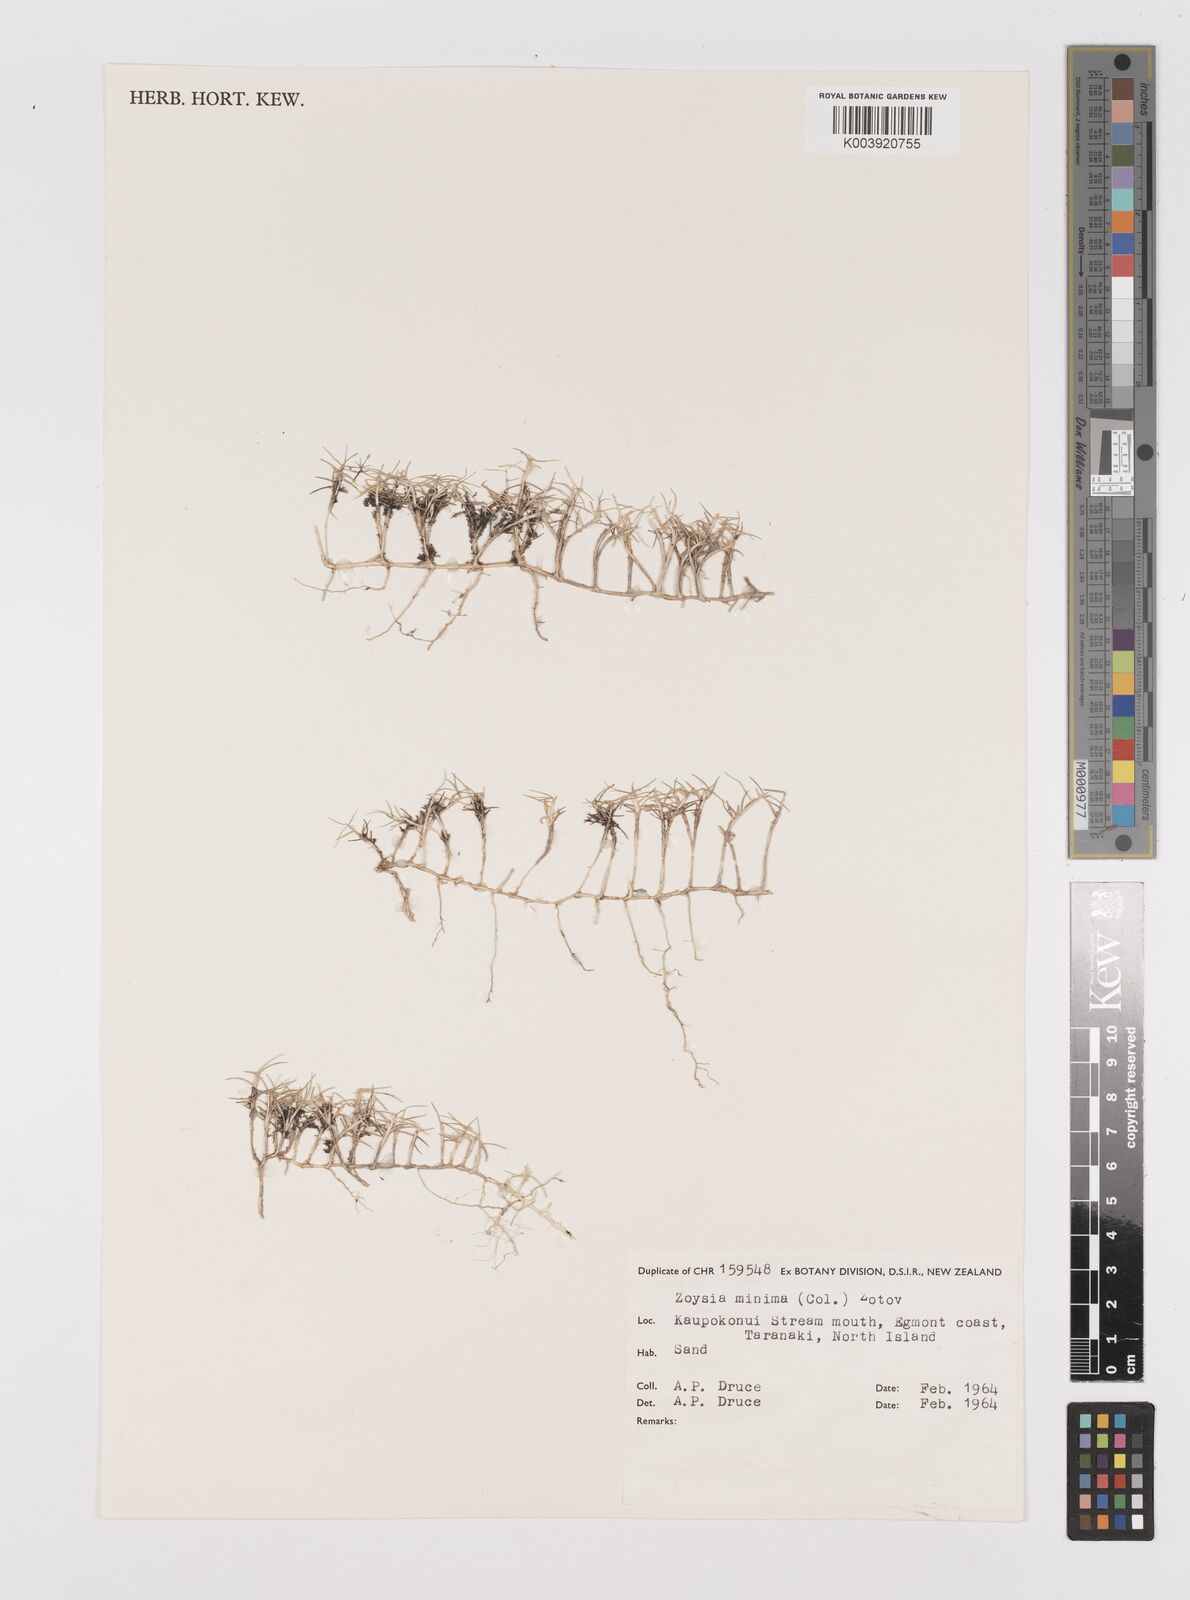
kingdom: Plantae
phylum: Tracheophyta
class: Liliopsida
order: Poales
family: Poaceae
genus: Zoysia
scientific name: Zoysia minima
